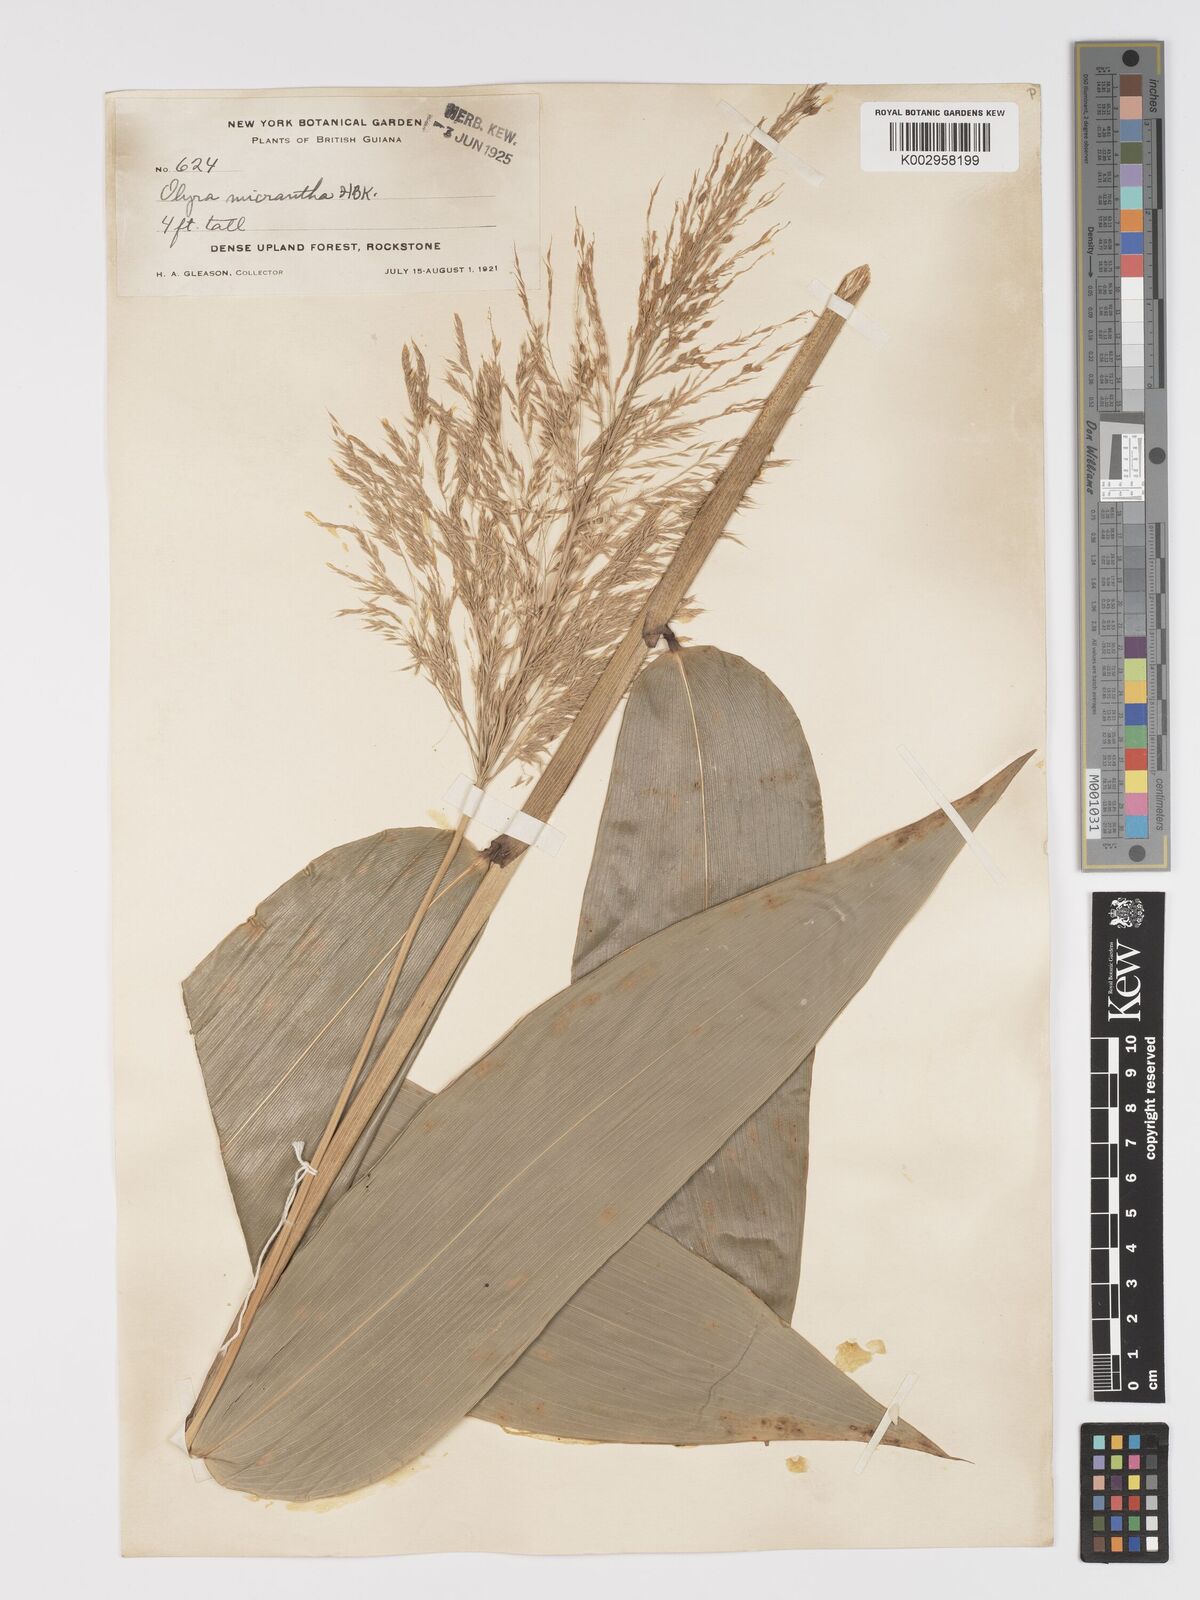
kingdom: Plantae
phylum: Tracheophyta
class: Liliopsida
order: Poales
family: Poaceae
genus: Taquara
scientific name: Taquara micrantha
